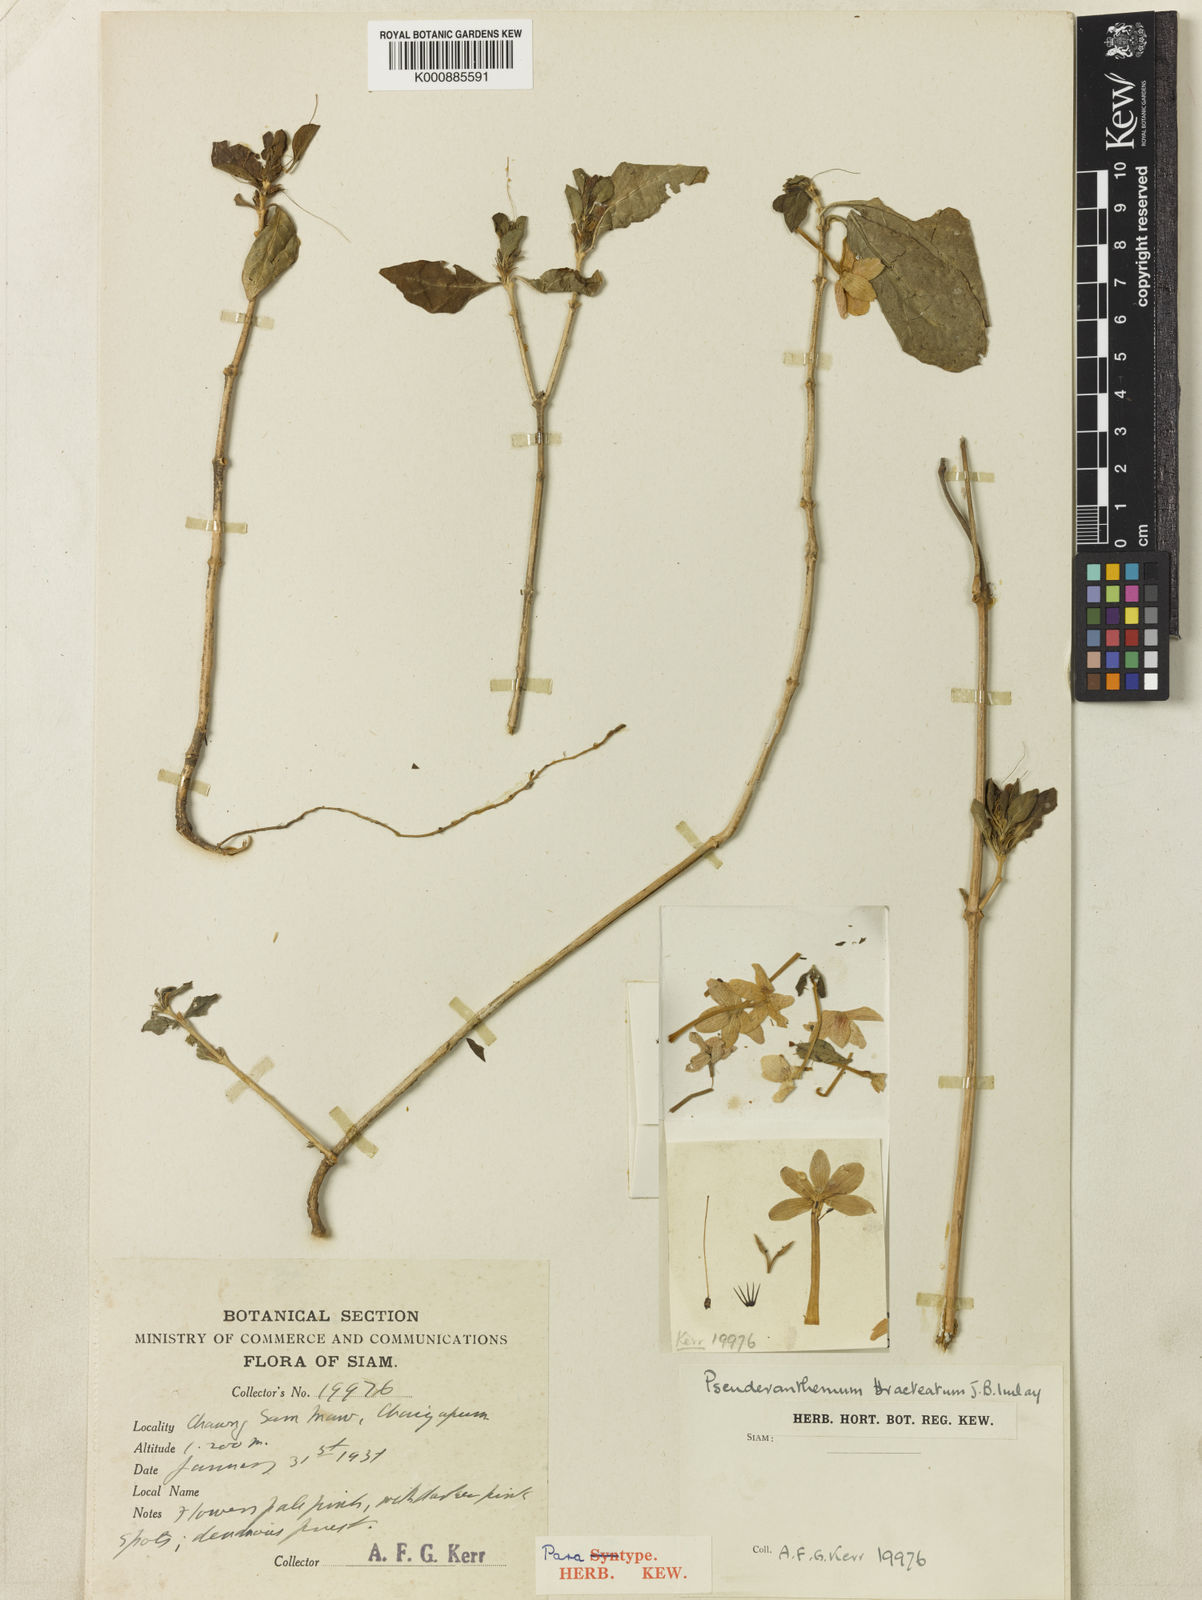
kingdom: Plantae
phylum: Tracheophyta
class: Magnoliopsida
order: Lamiales
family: Acanthaceae
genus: Pseuderanthemum
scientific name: Pseuderanthemum bracteatum
